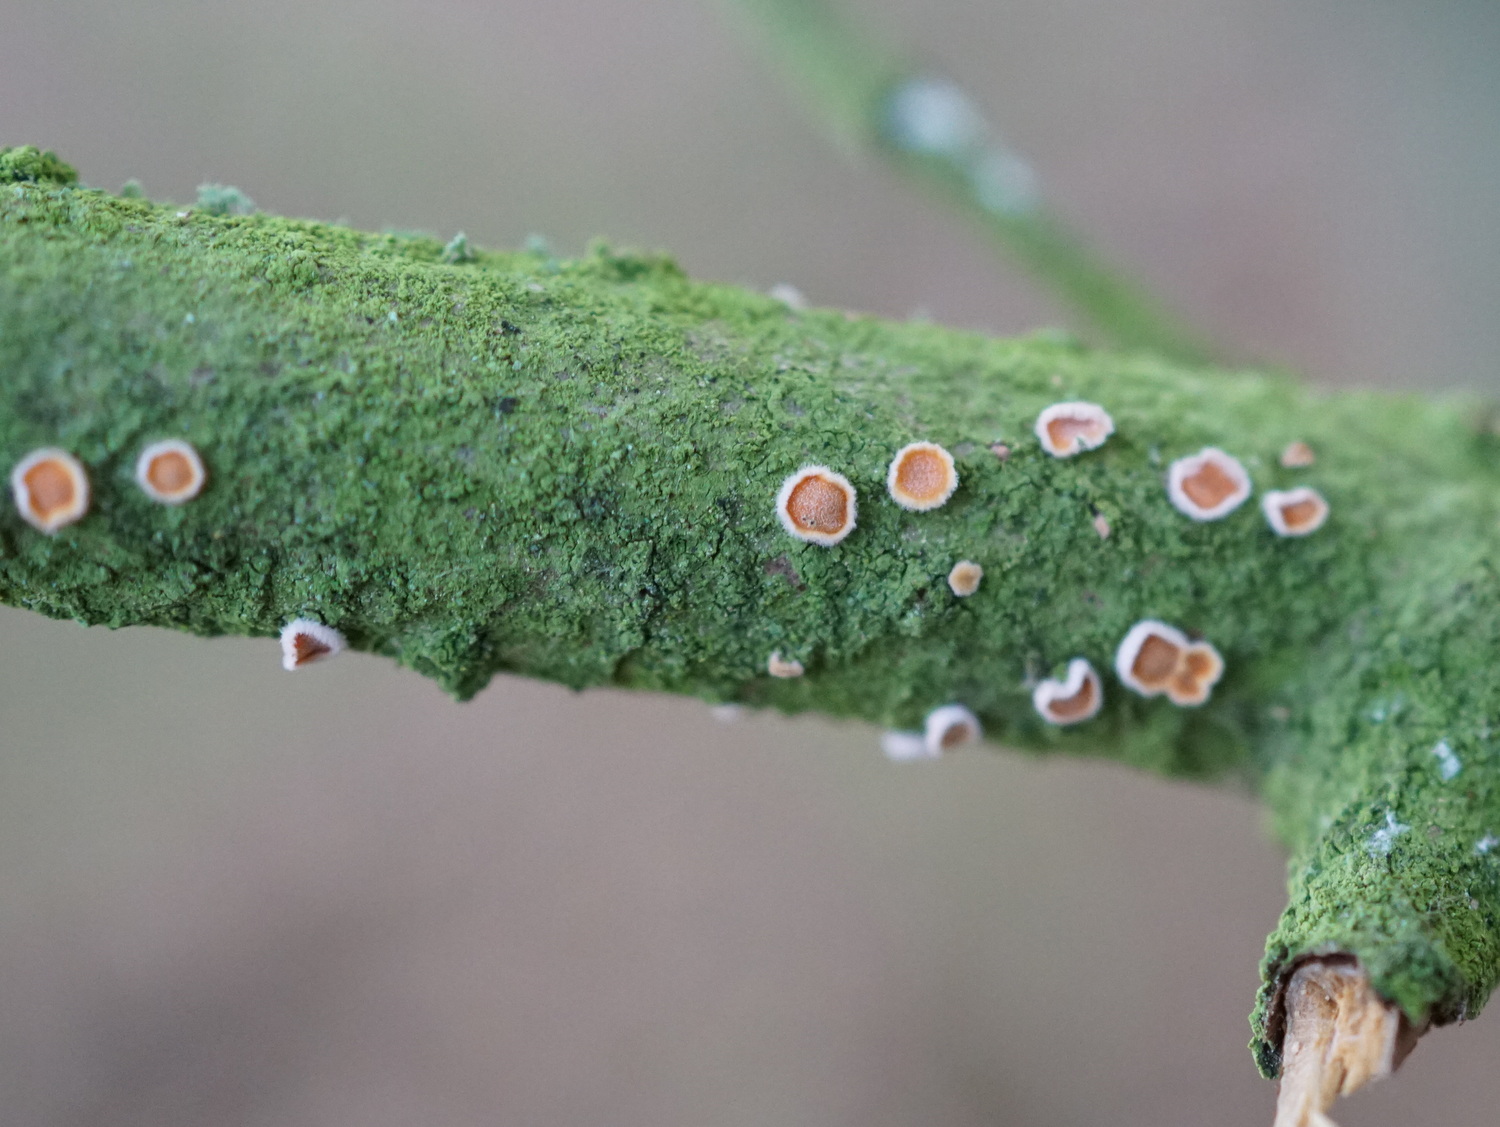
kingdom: Fungi
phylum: Basidiomycota
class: Agaricomycetes
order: Russulales
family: Stereaceae
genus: Aleurodiscus
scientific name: Aleurodiscus amorphus
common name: orange skiveskorpe
